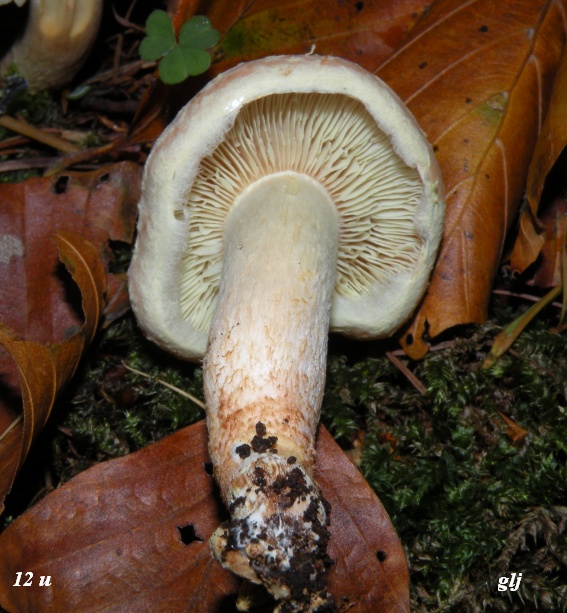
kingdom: Fungi
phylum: Basidiomycota
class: Agaricomycetes
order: Agaricales
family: Strophariaceae
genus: Hypholoma
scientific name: Hypholoma lateritium
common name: teglrød svovlhat
